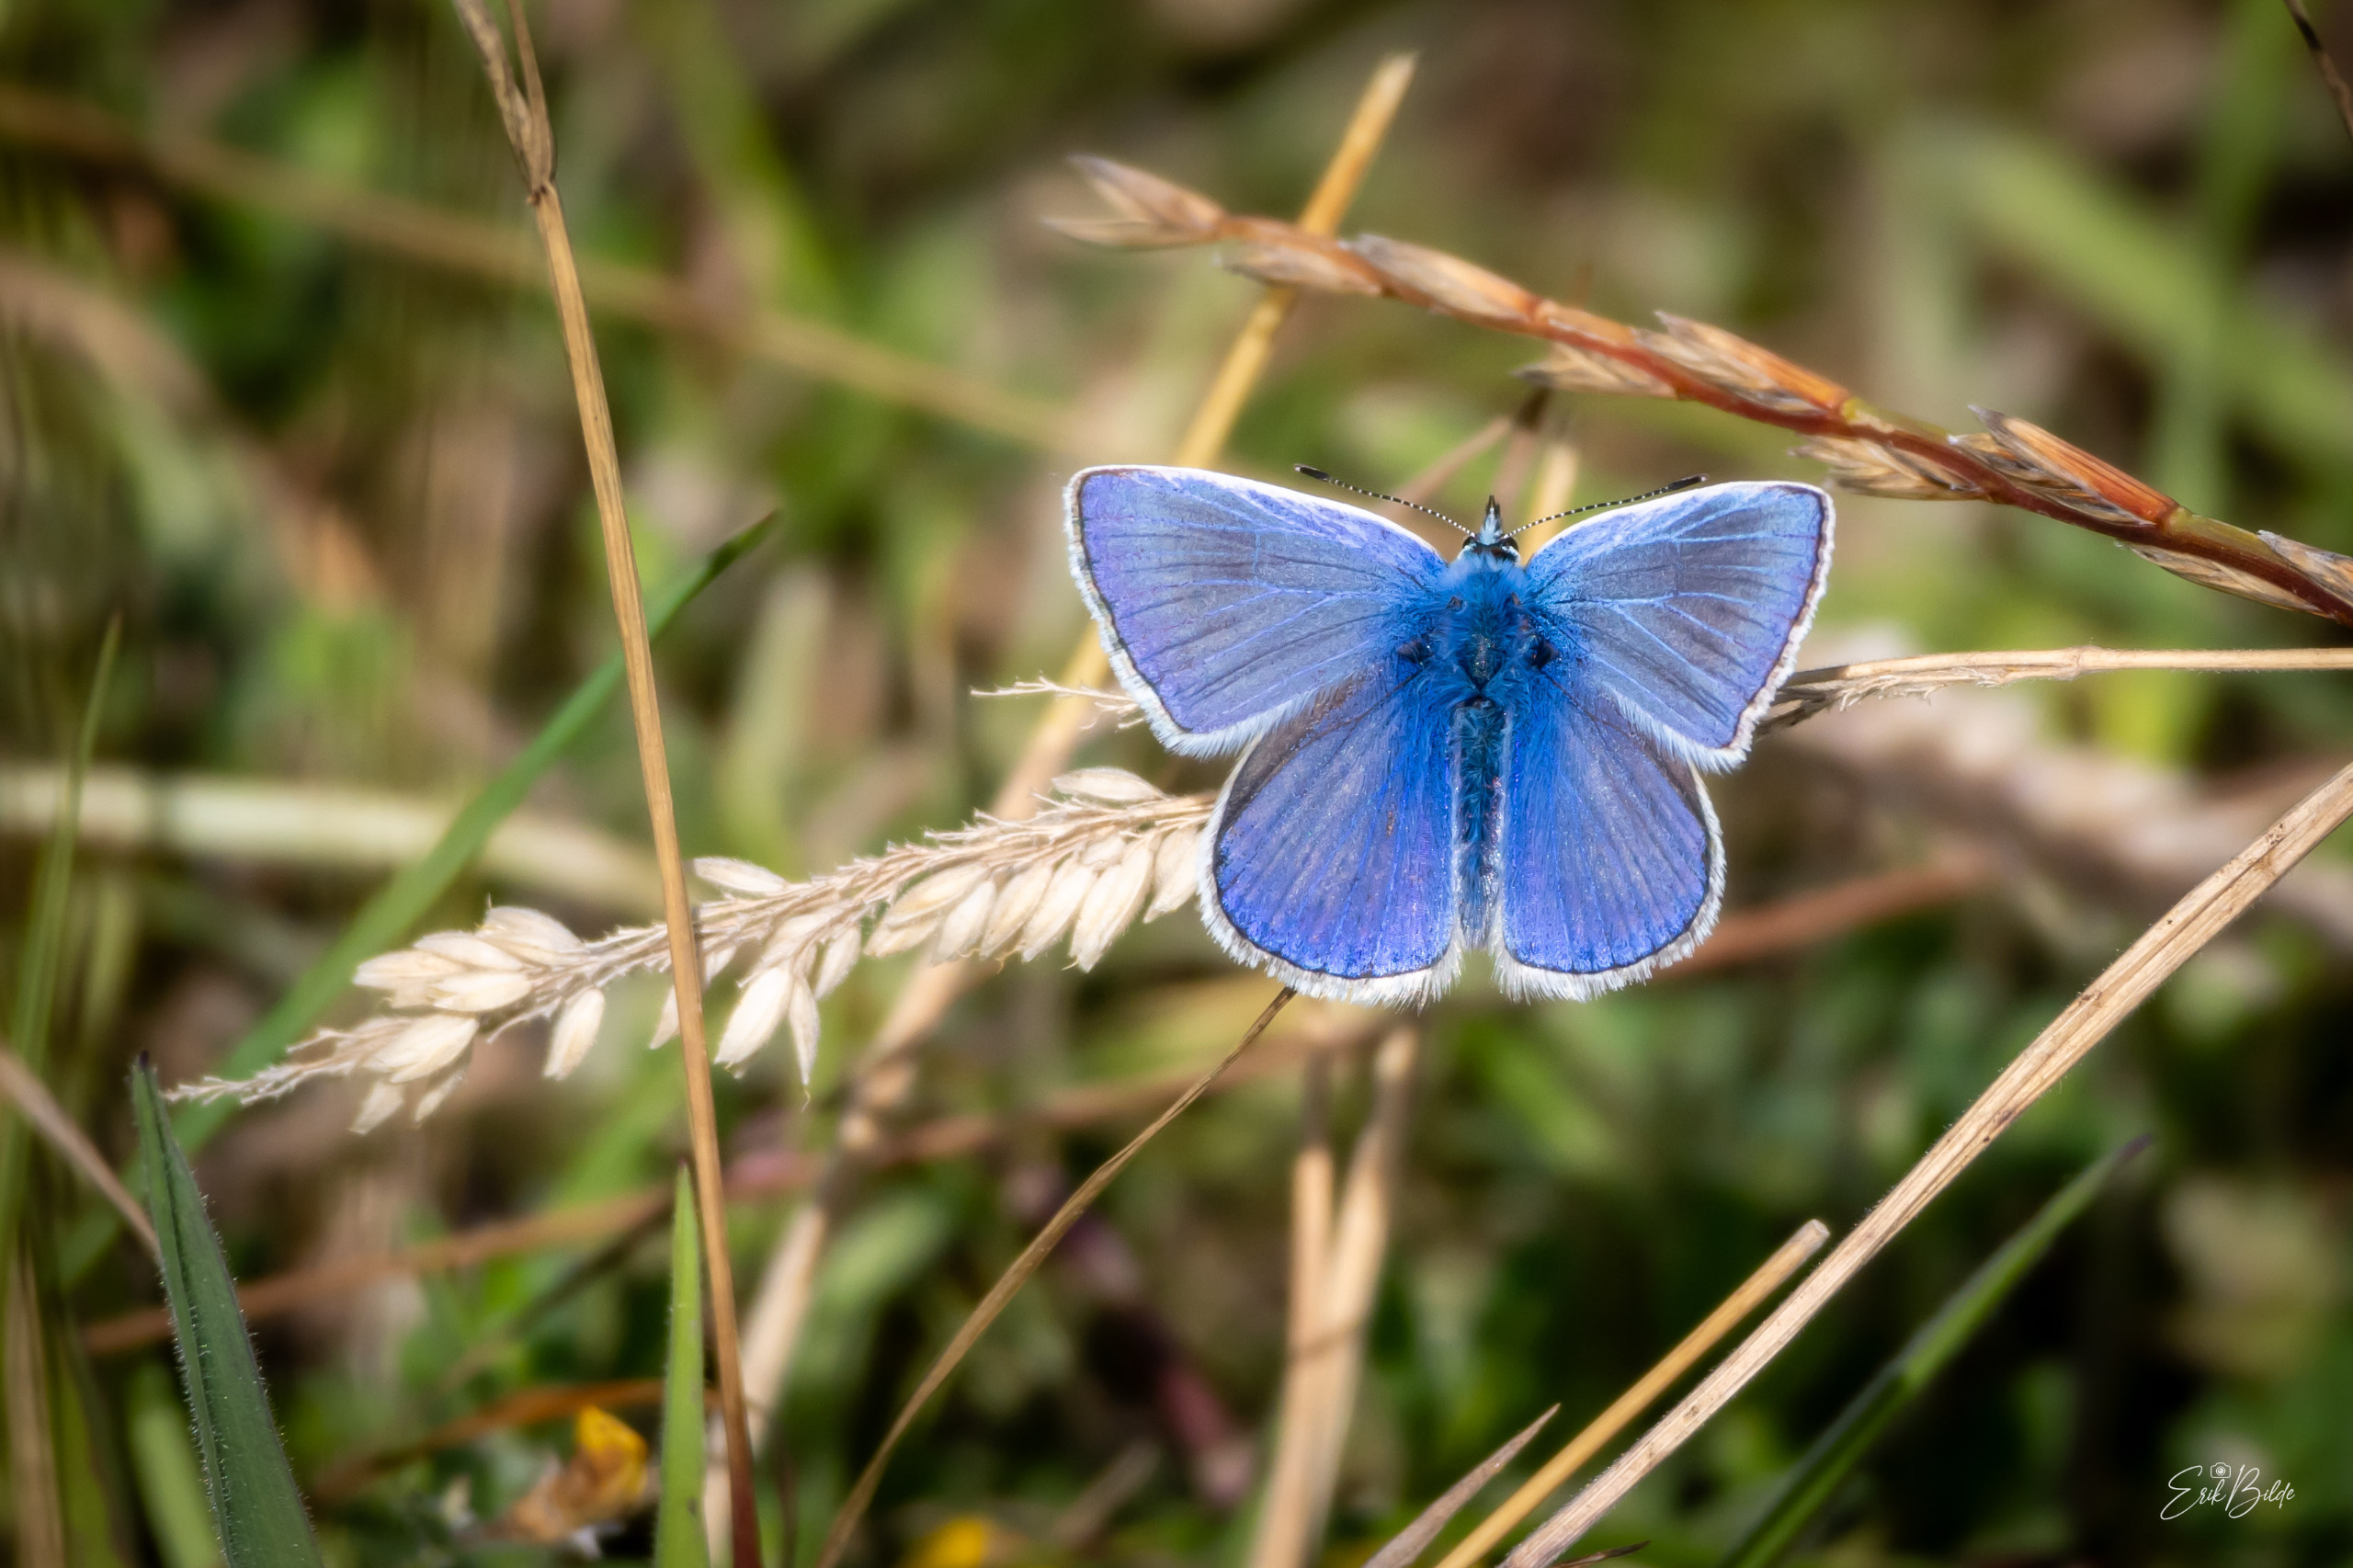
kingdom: Animalia
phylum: Arthropoda
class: Insecta
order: Lepidoptera
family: Lycaenidae
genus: Polyommatus
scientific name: Polyommatus icarus
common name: Almindelig blåfugl
